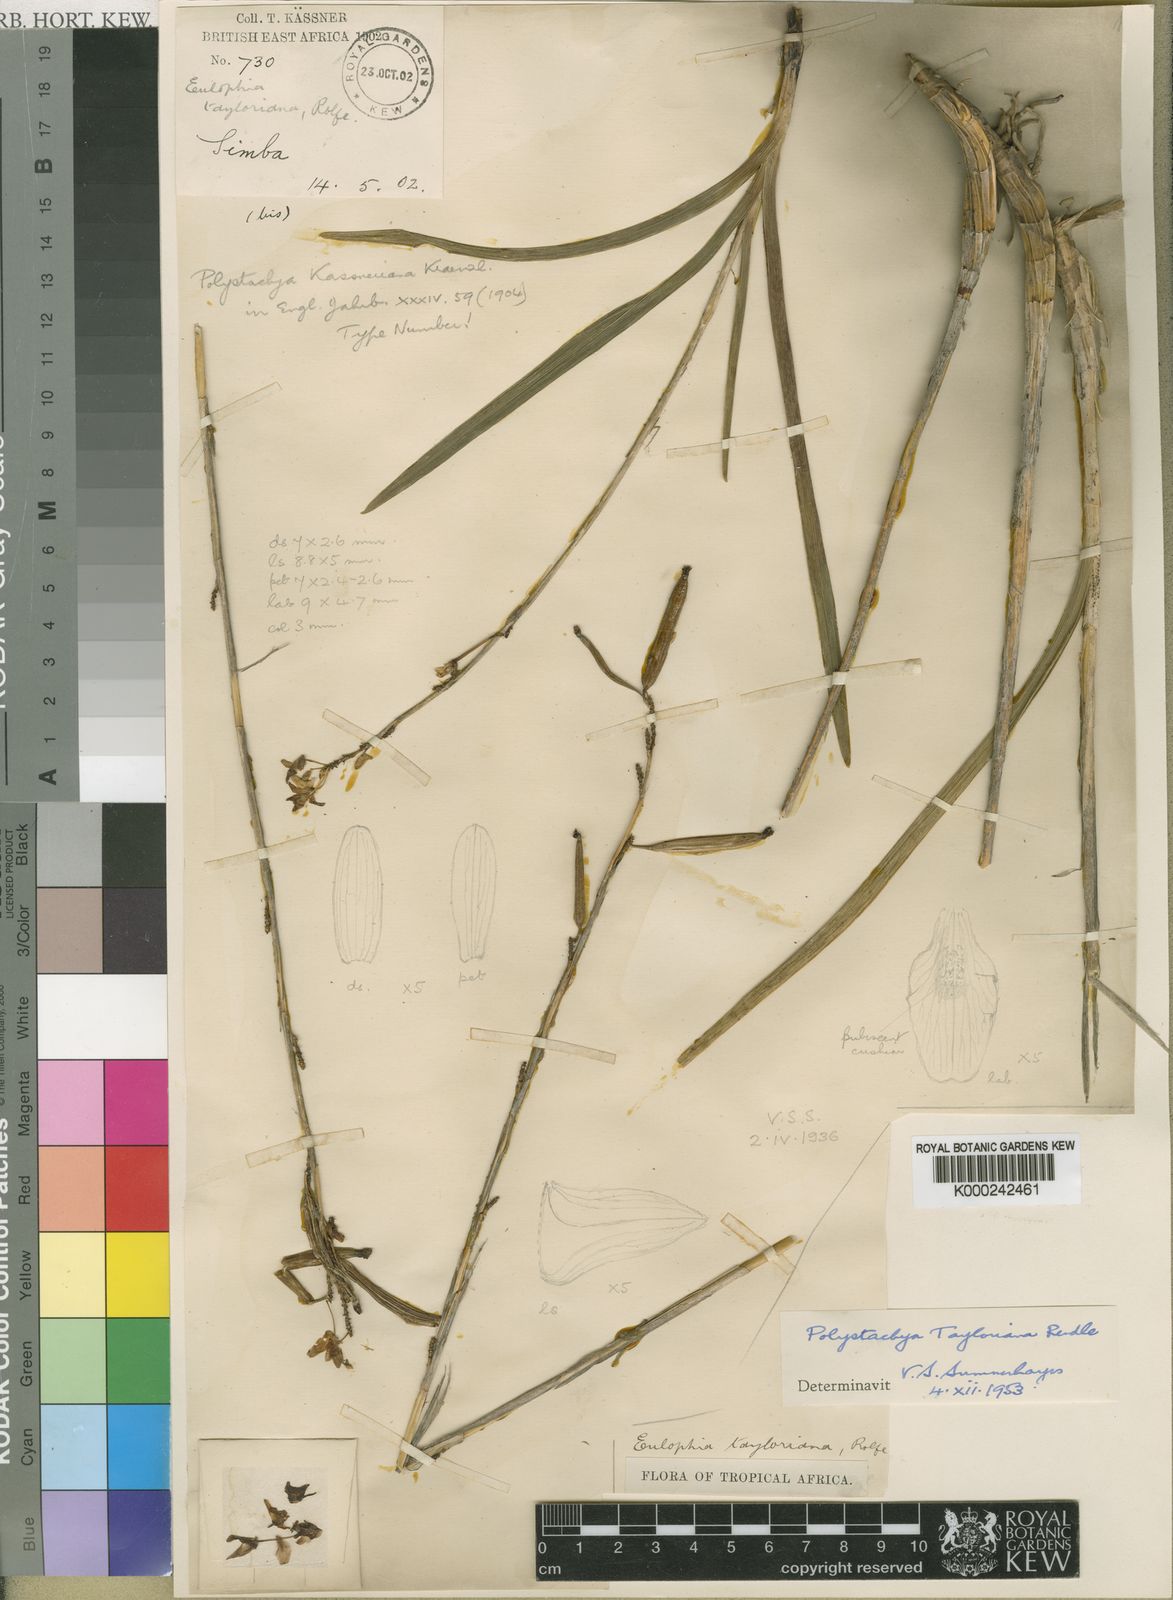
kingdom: Plantae
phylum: Tracheophyta
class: Liliopsida
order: Asparagales
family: Orchidaceae
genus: Polystachya
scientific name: Polystachya dendrobiiflora
